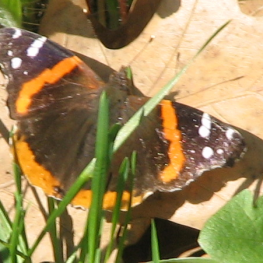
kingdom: Animalia
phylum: Arthropoda
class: Insecta
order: Lepidoptera
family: Nymphalidae
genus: Vanessa
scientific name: Vanessa atalanta
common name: Red Admiral
